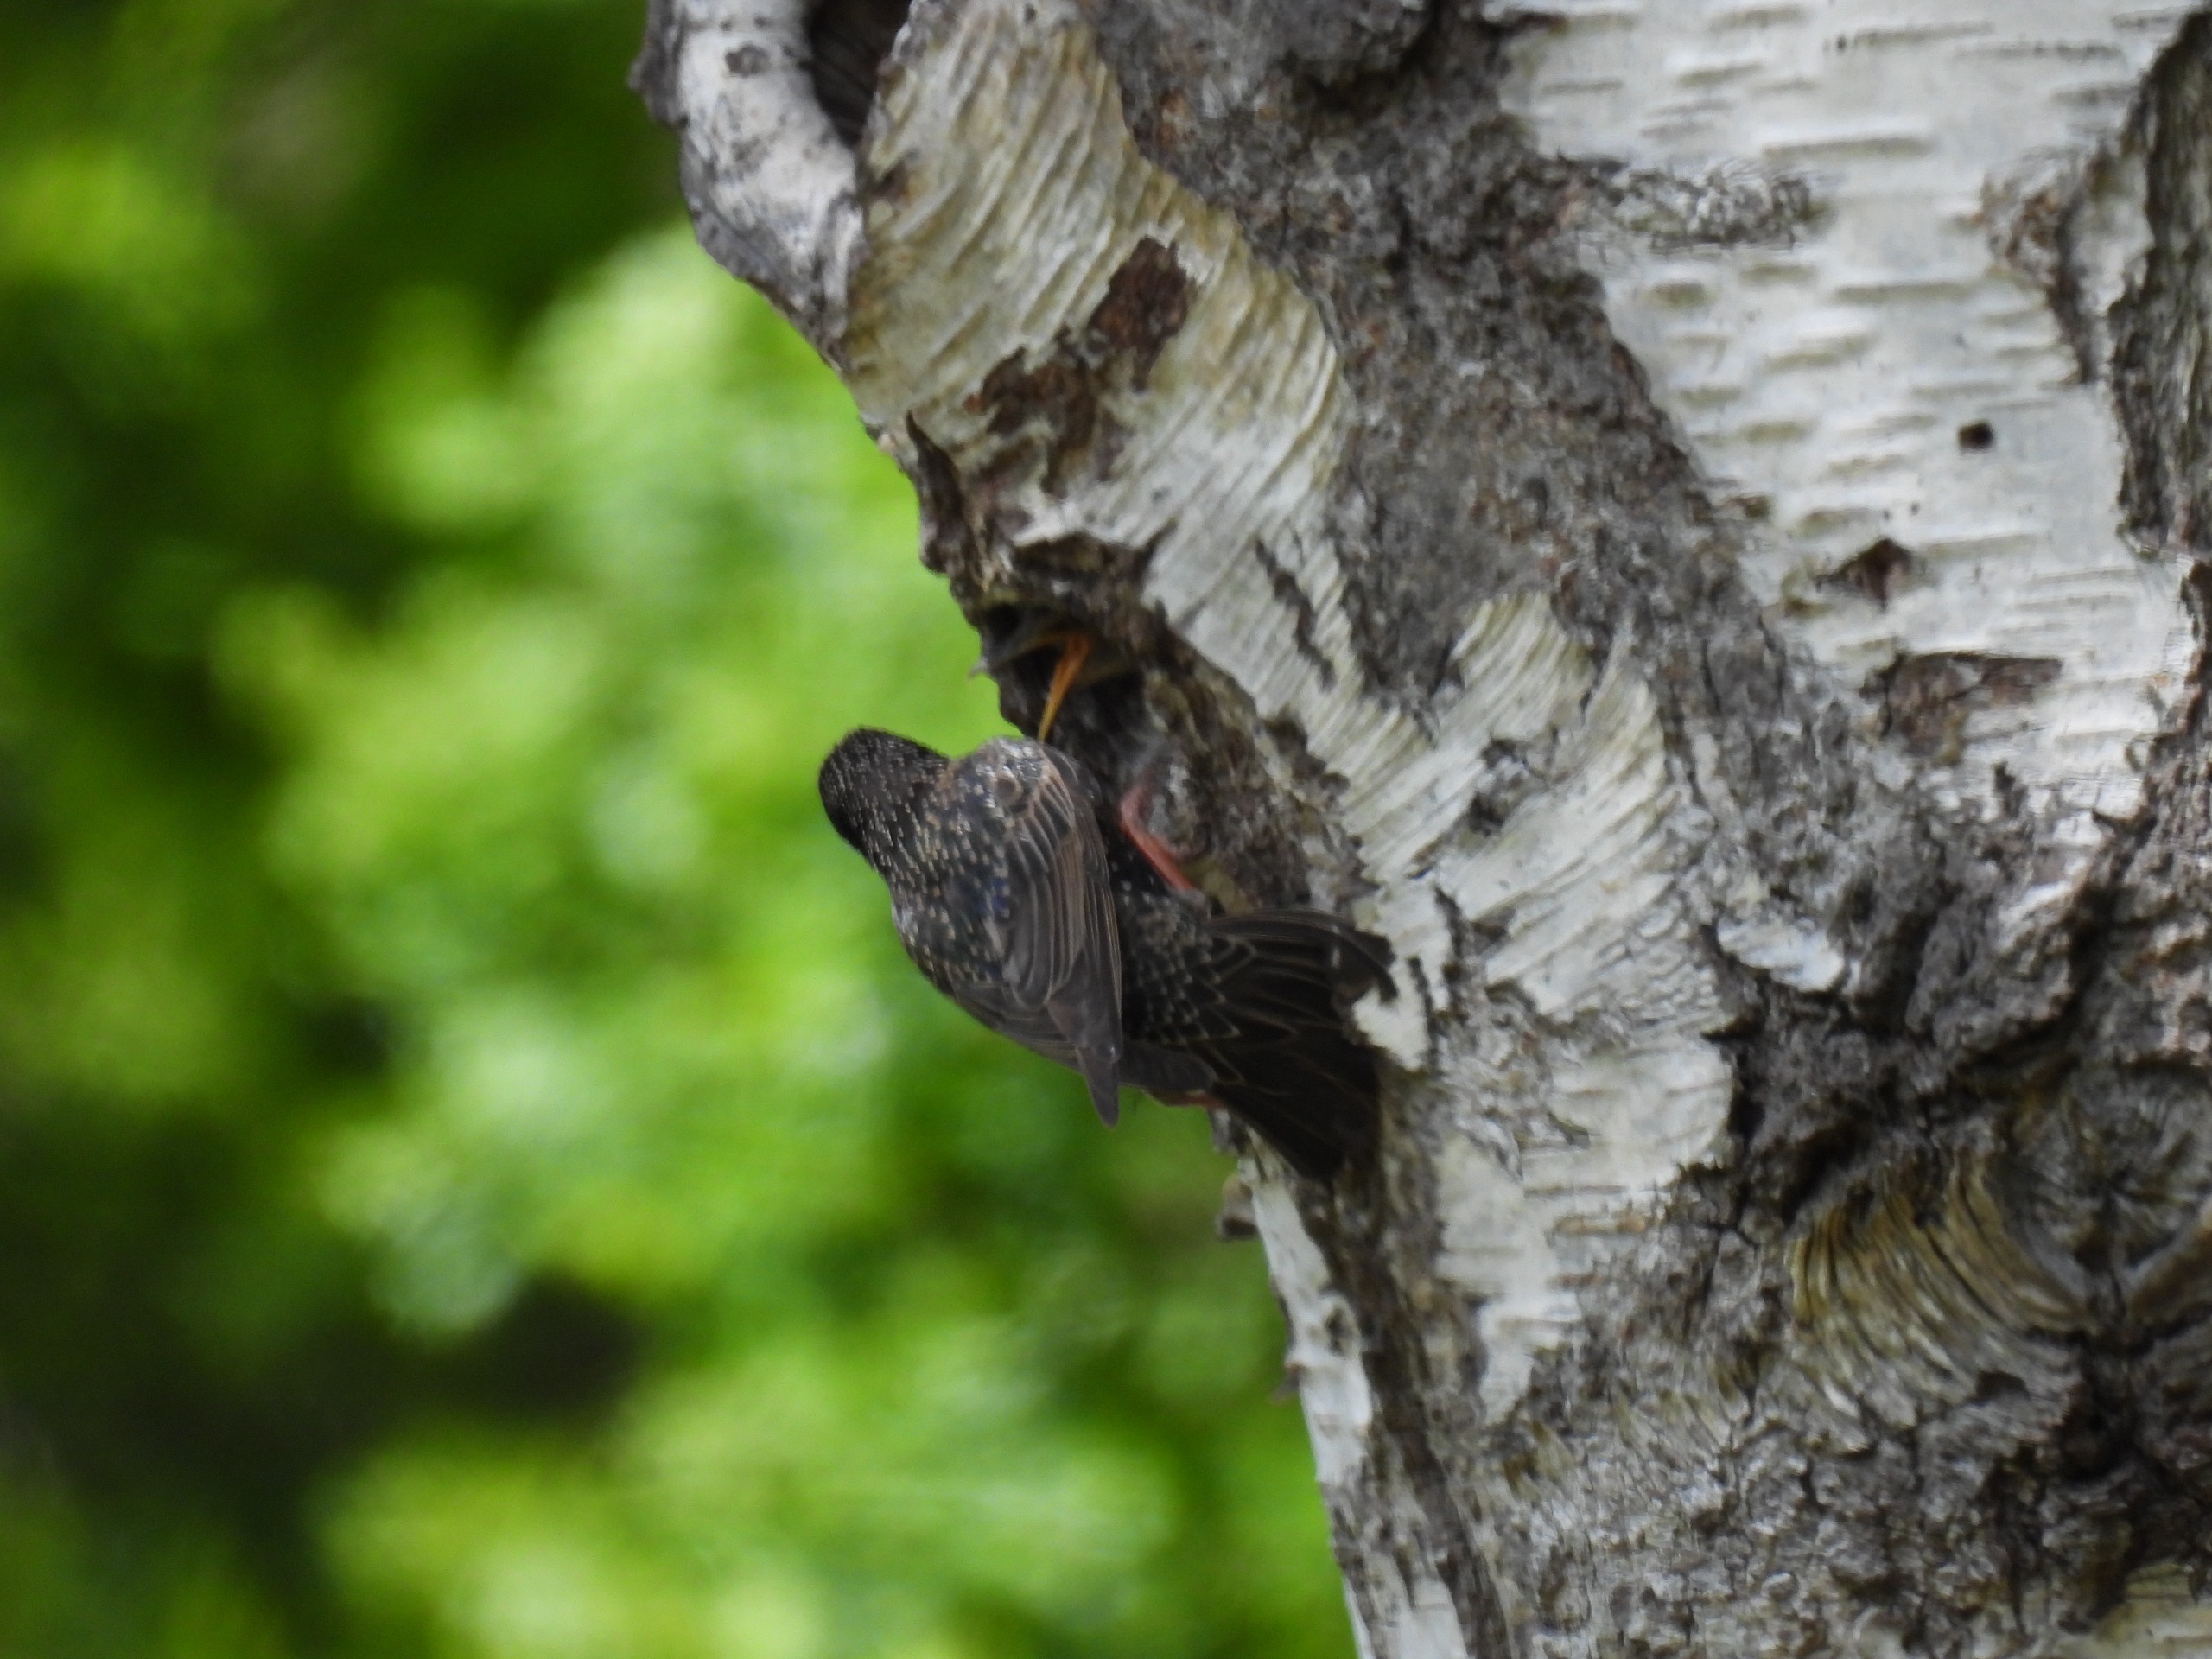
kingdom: Animalia
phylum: Chordata
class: Aves
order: Passeriformes
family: Sturnidae
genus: Sturnus
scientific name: Sturnus vulgaris
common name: Stær
